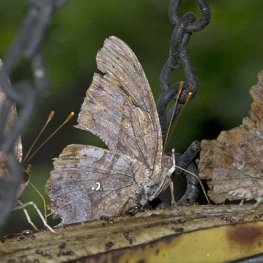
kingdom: Animalia
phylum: Arthropoda
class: Insecta
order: Lepidoptera
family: Nymphalidae
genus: Polygonia
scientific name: Polygonia interrogationis
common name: Question Mark
